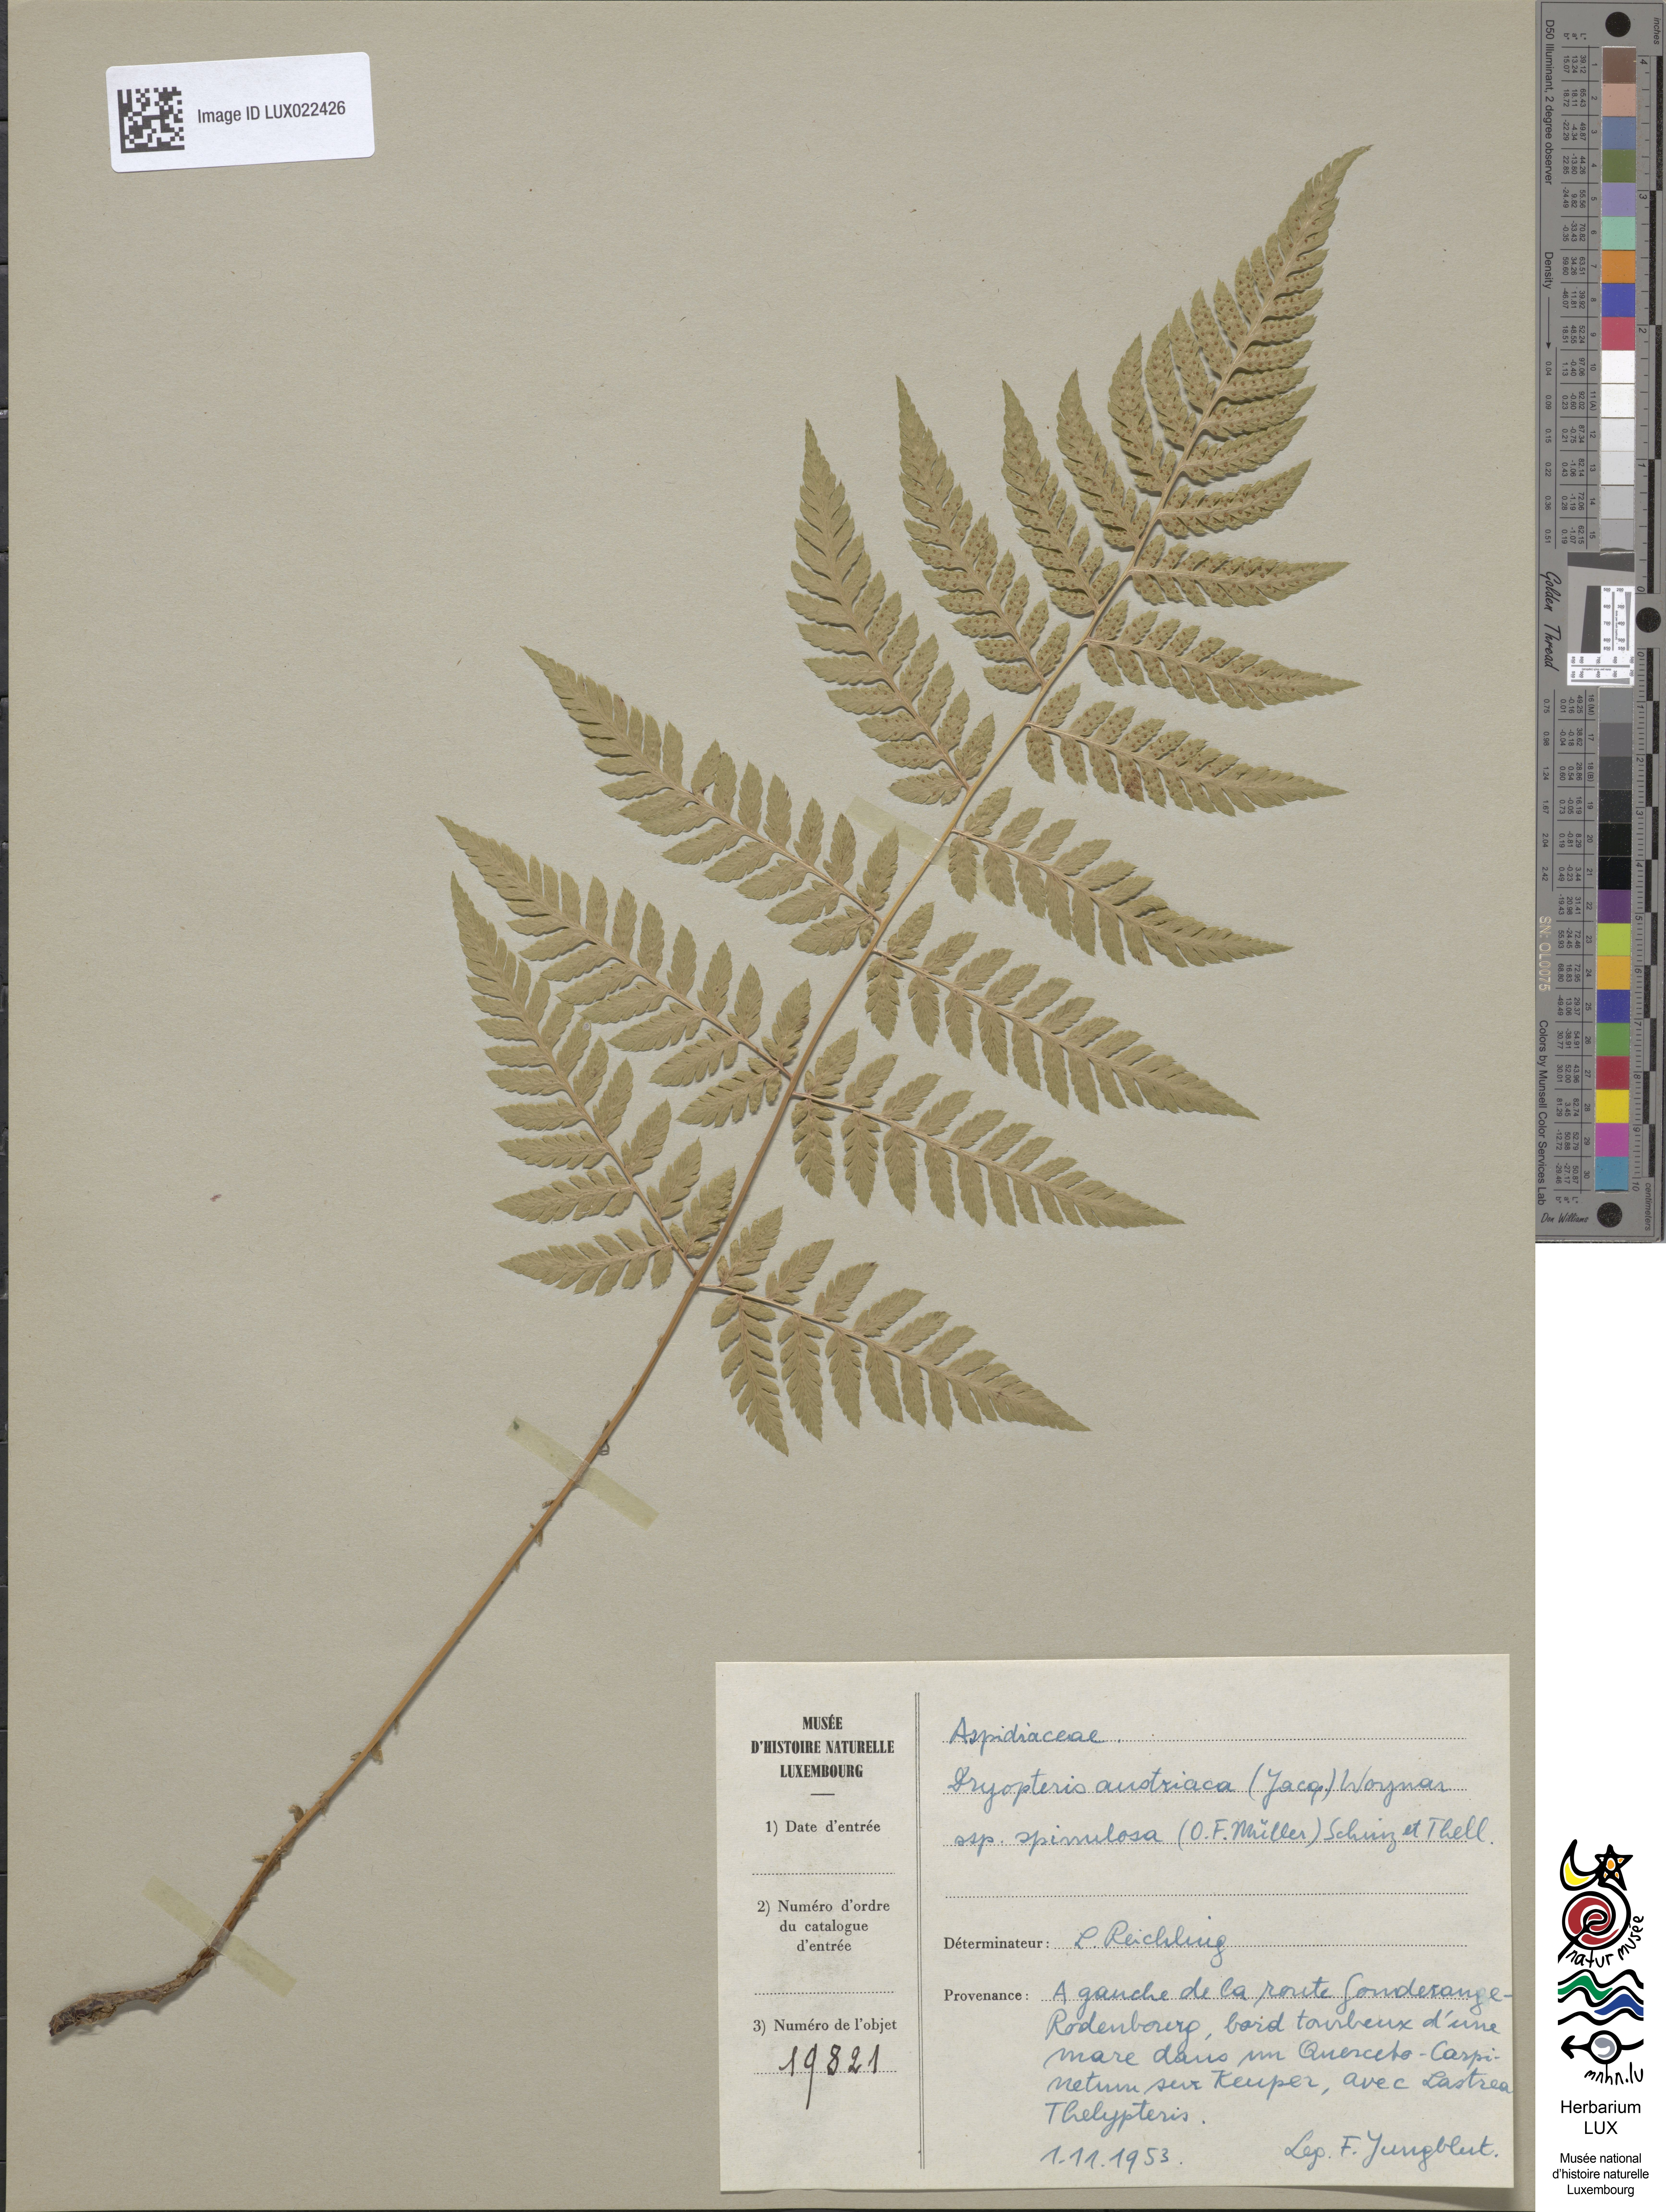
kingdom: Plantae
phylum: Tracheophyta
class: Polypodiopsida
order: Polypodiales
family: Dryopteridaceae
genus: Dryopteris
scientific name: Dryopteris carthusiana
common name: Narrow buckler-fern
